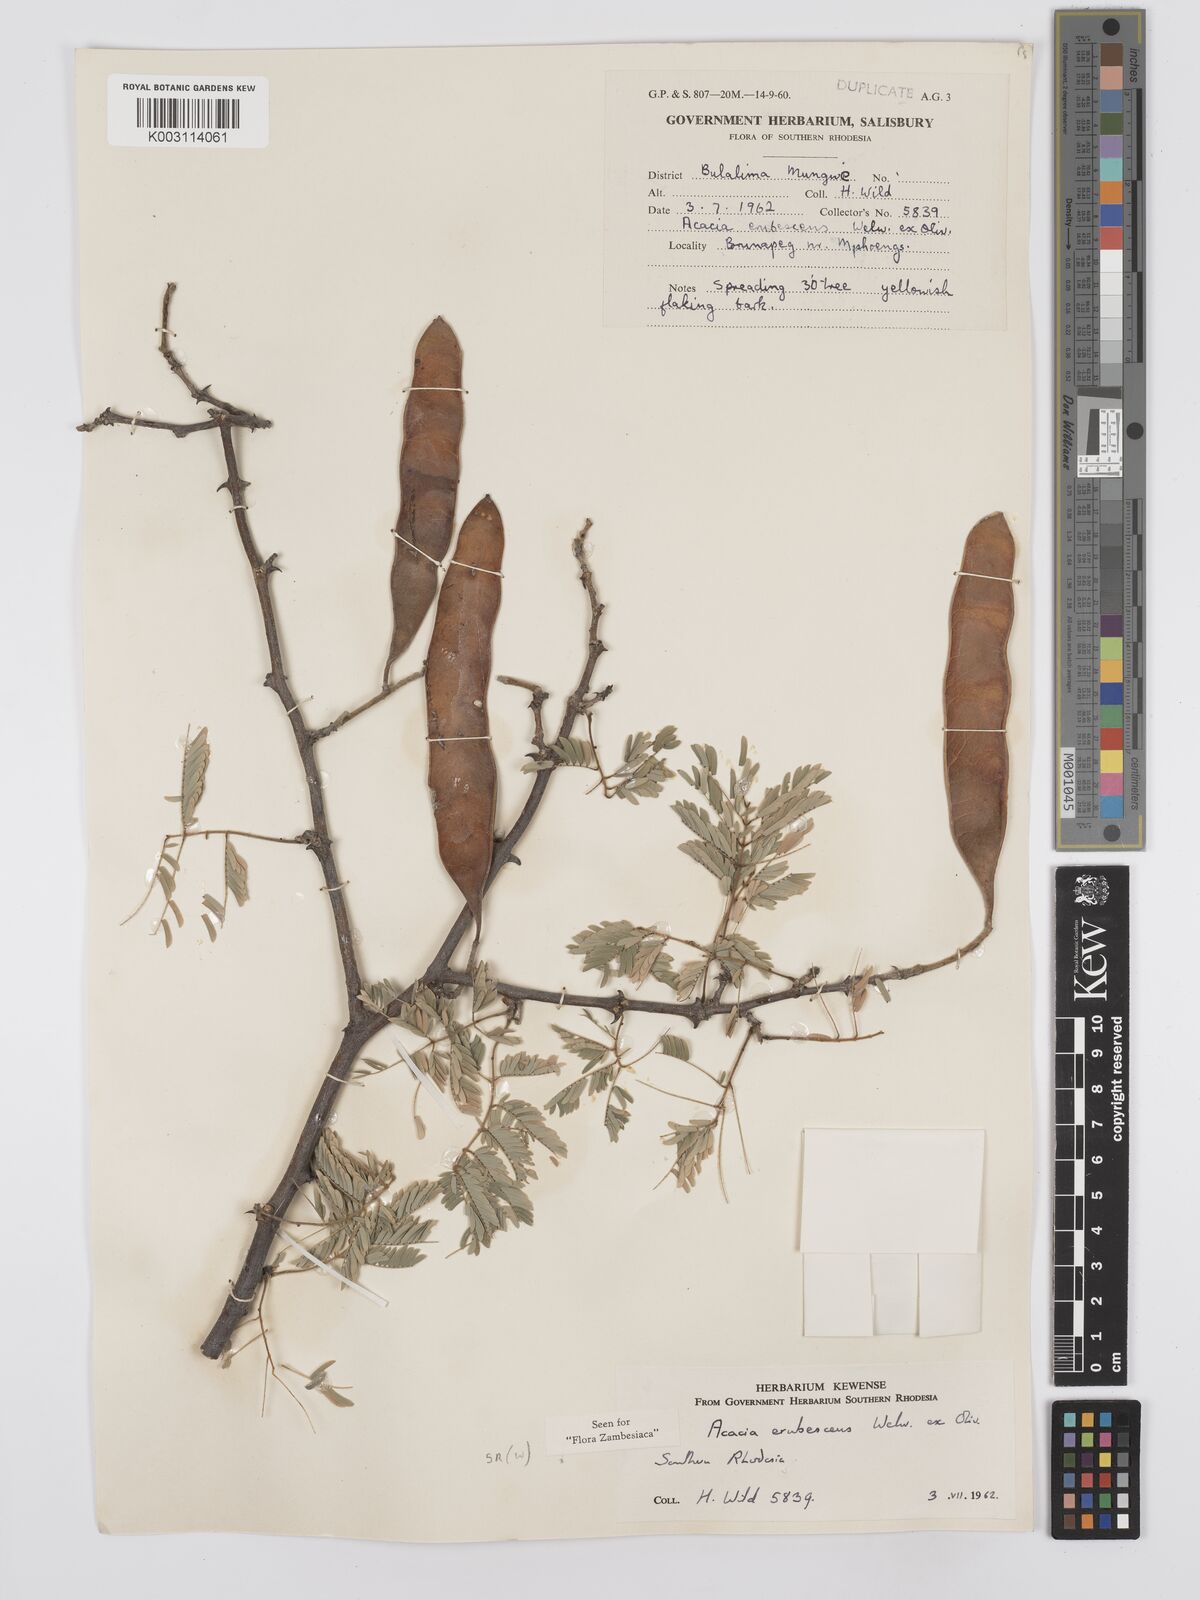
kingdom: Plantae
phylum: Tracheophyta
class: Magnoliopsida
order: Fabales
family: Fabaceae
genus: Senegalia
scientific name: Senegalia erubescens
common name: Bluethorn
